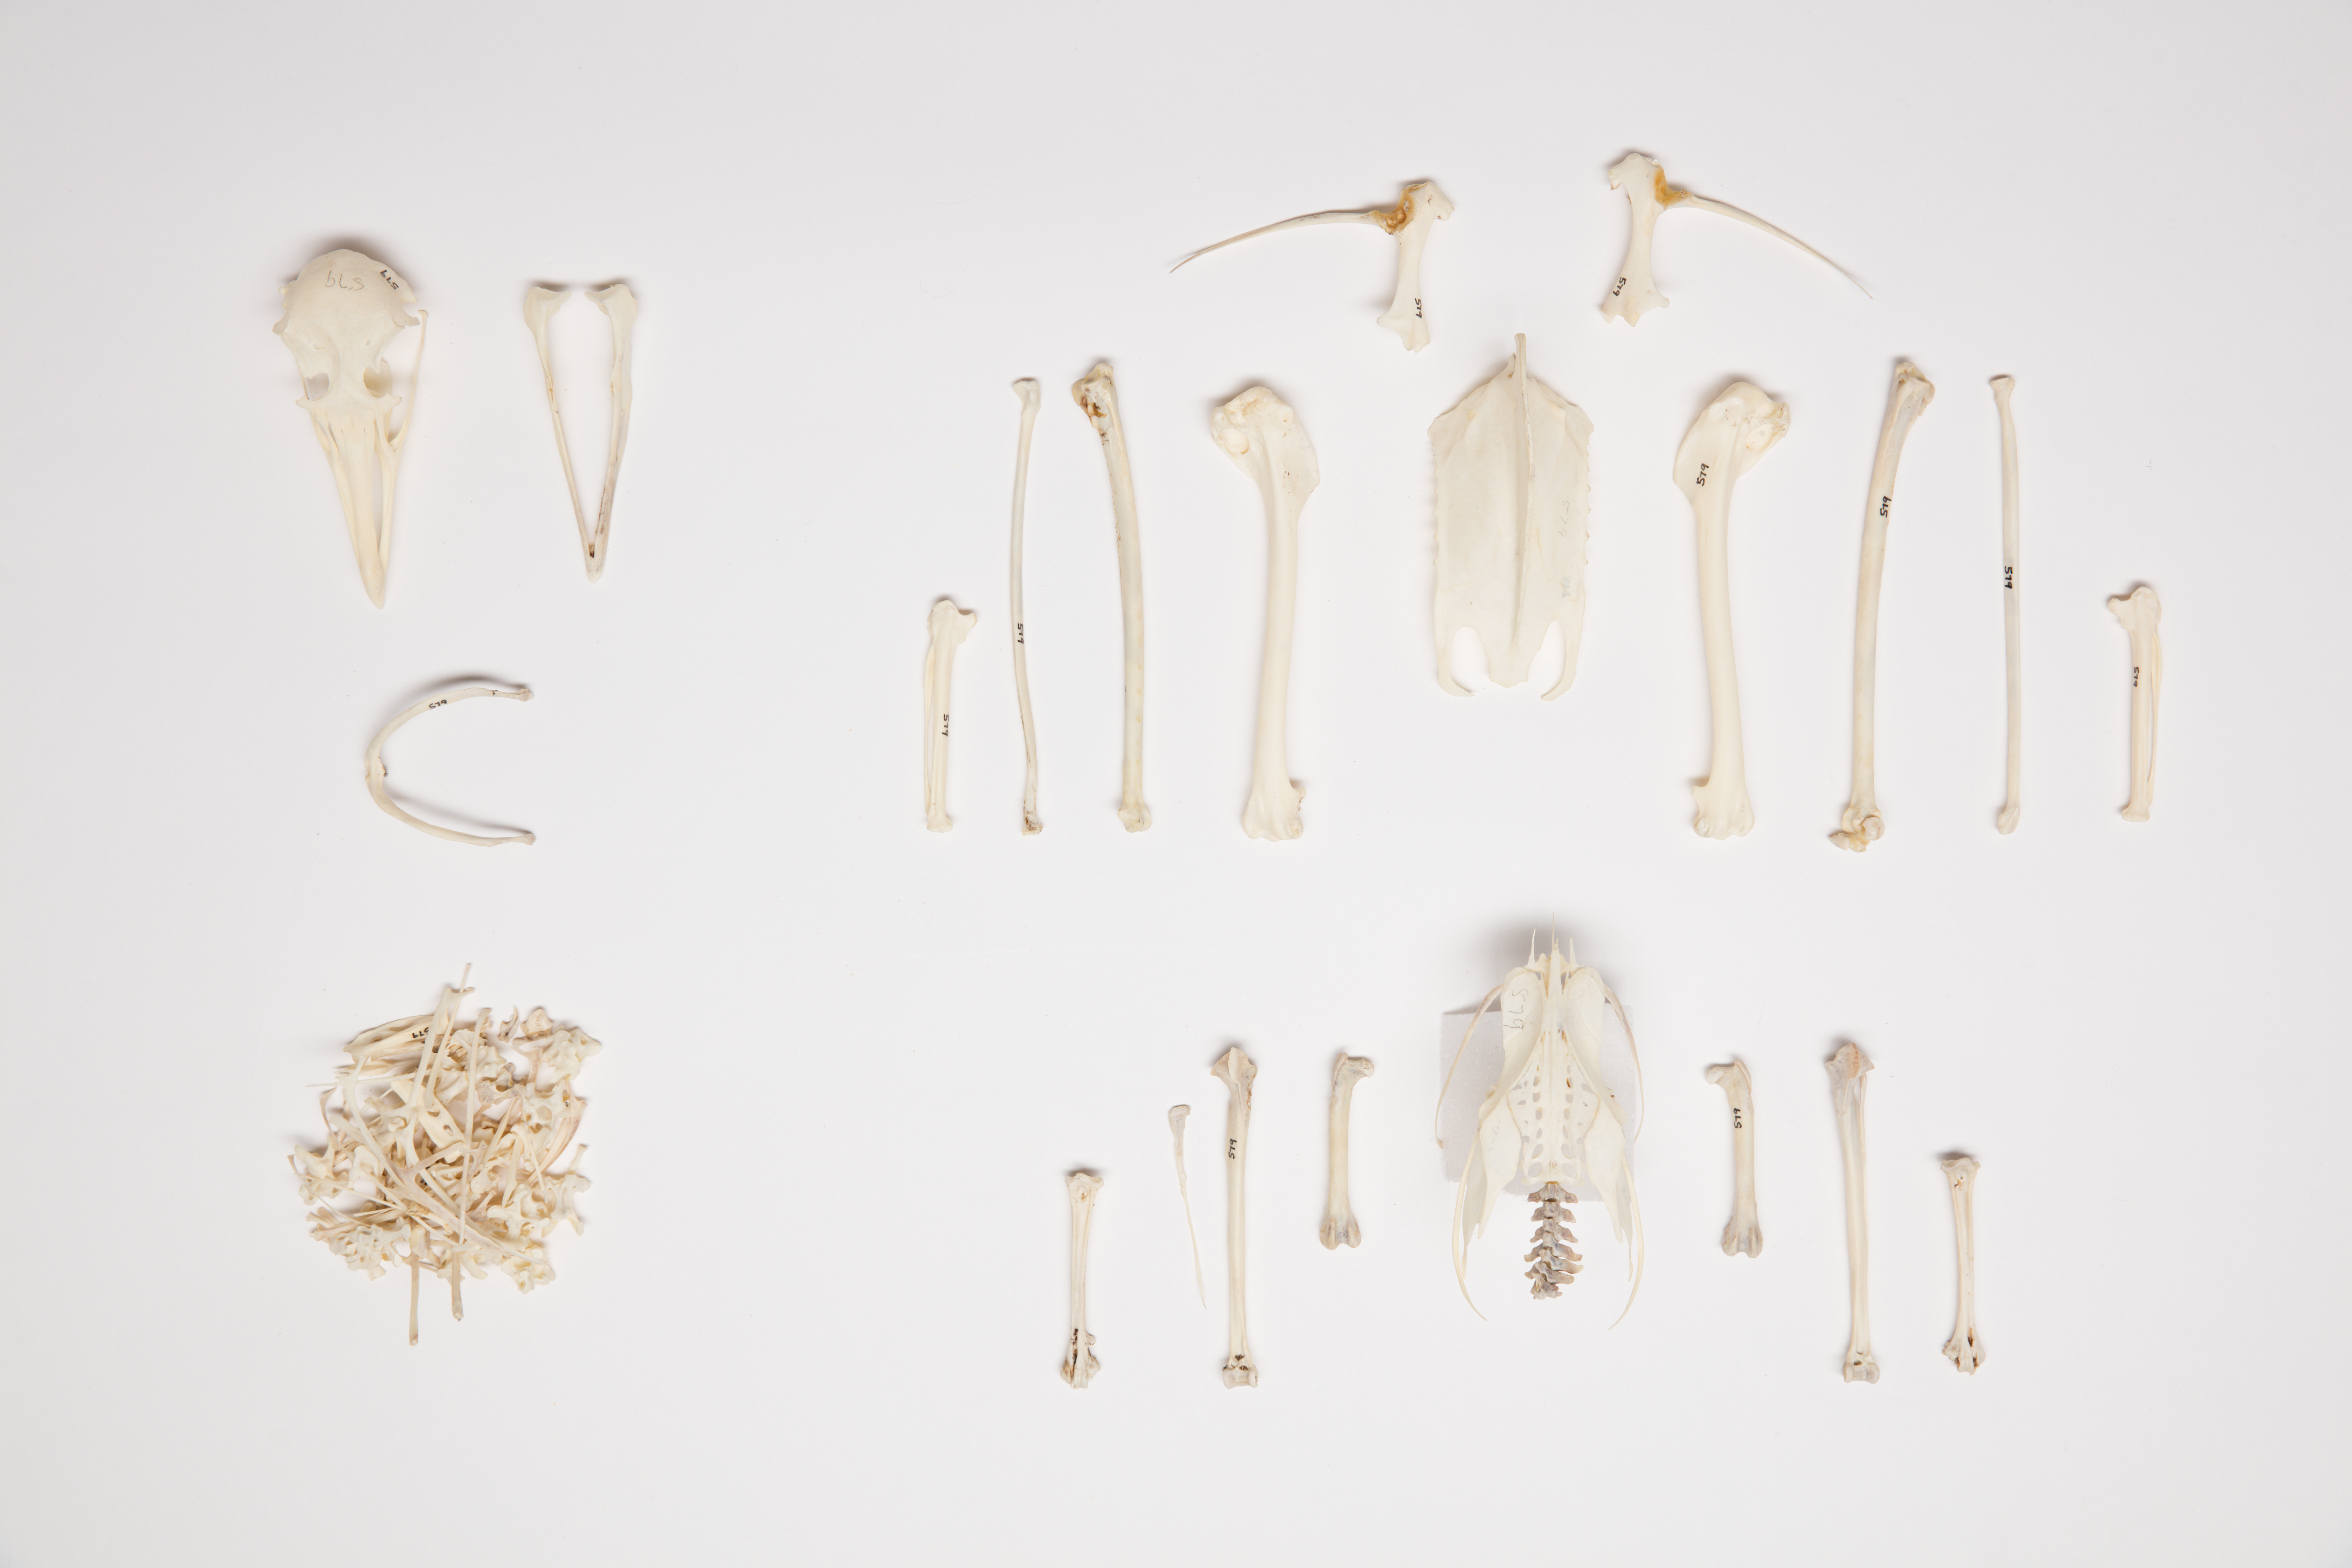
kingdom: Animalia
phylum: Chordata
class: Aves
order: Charadriiformes
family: Stercorariidae
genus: Stercorarius
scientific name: Stercorarius maccormicki
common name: South polar skua
